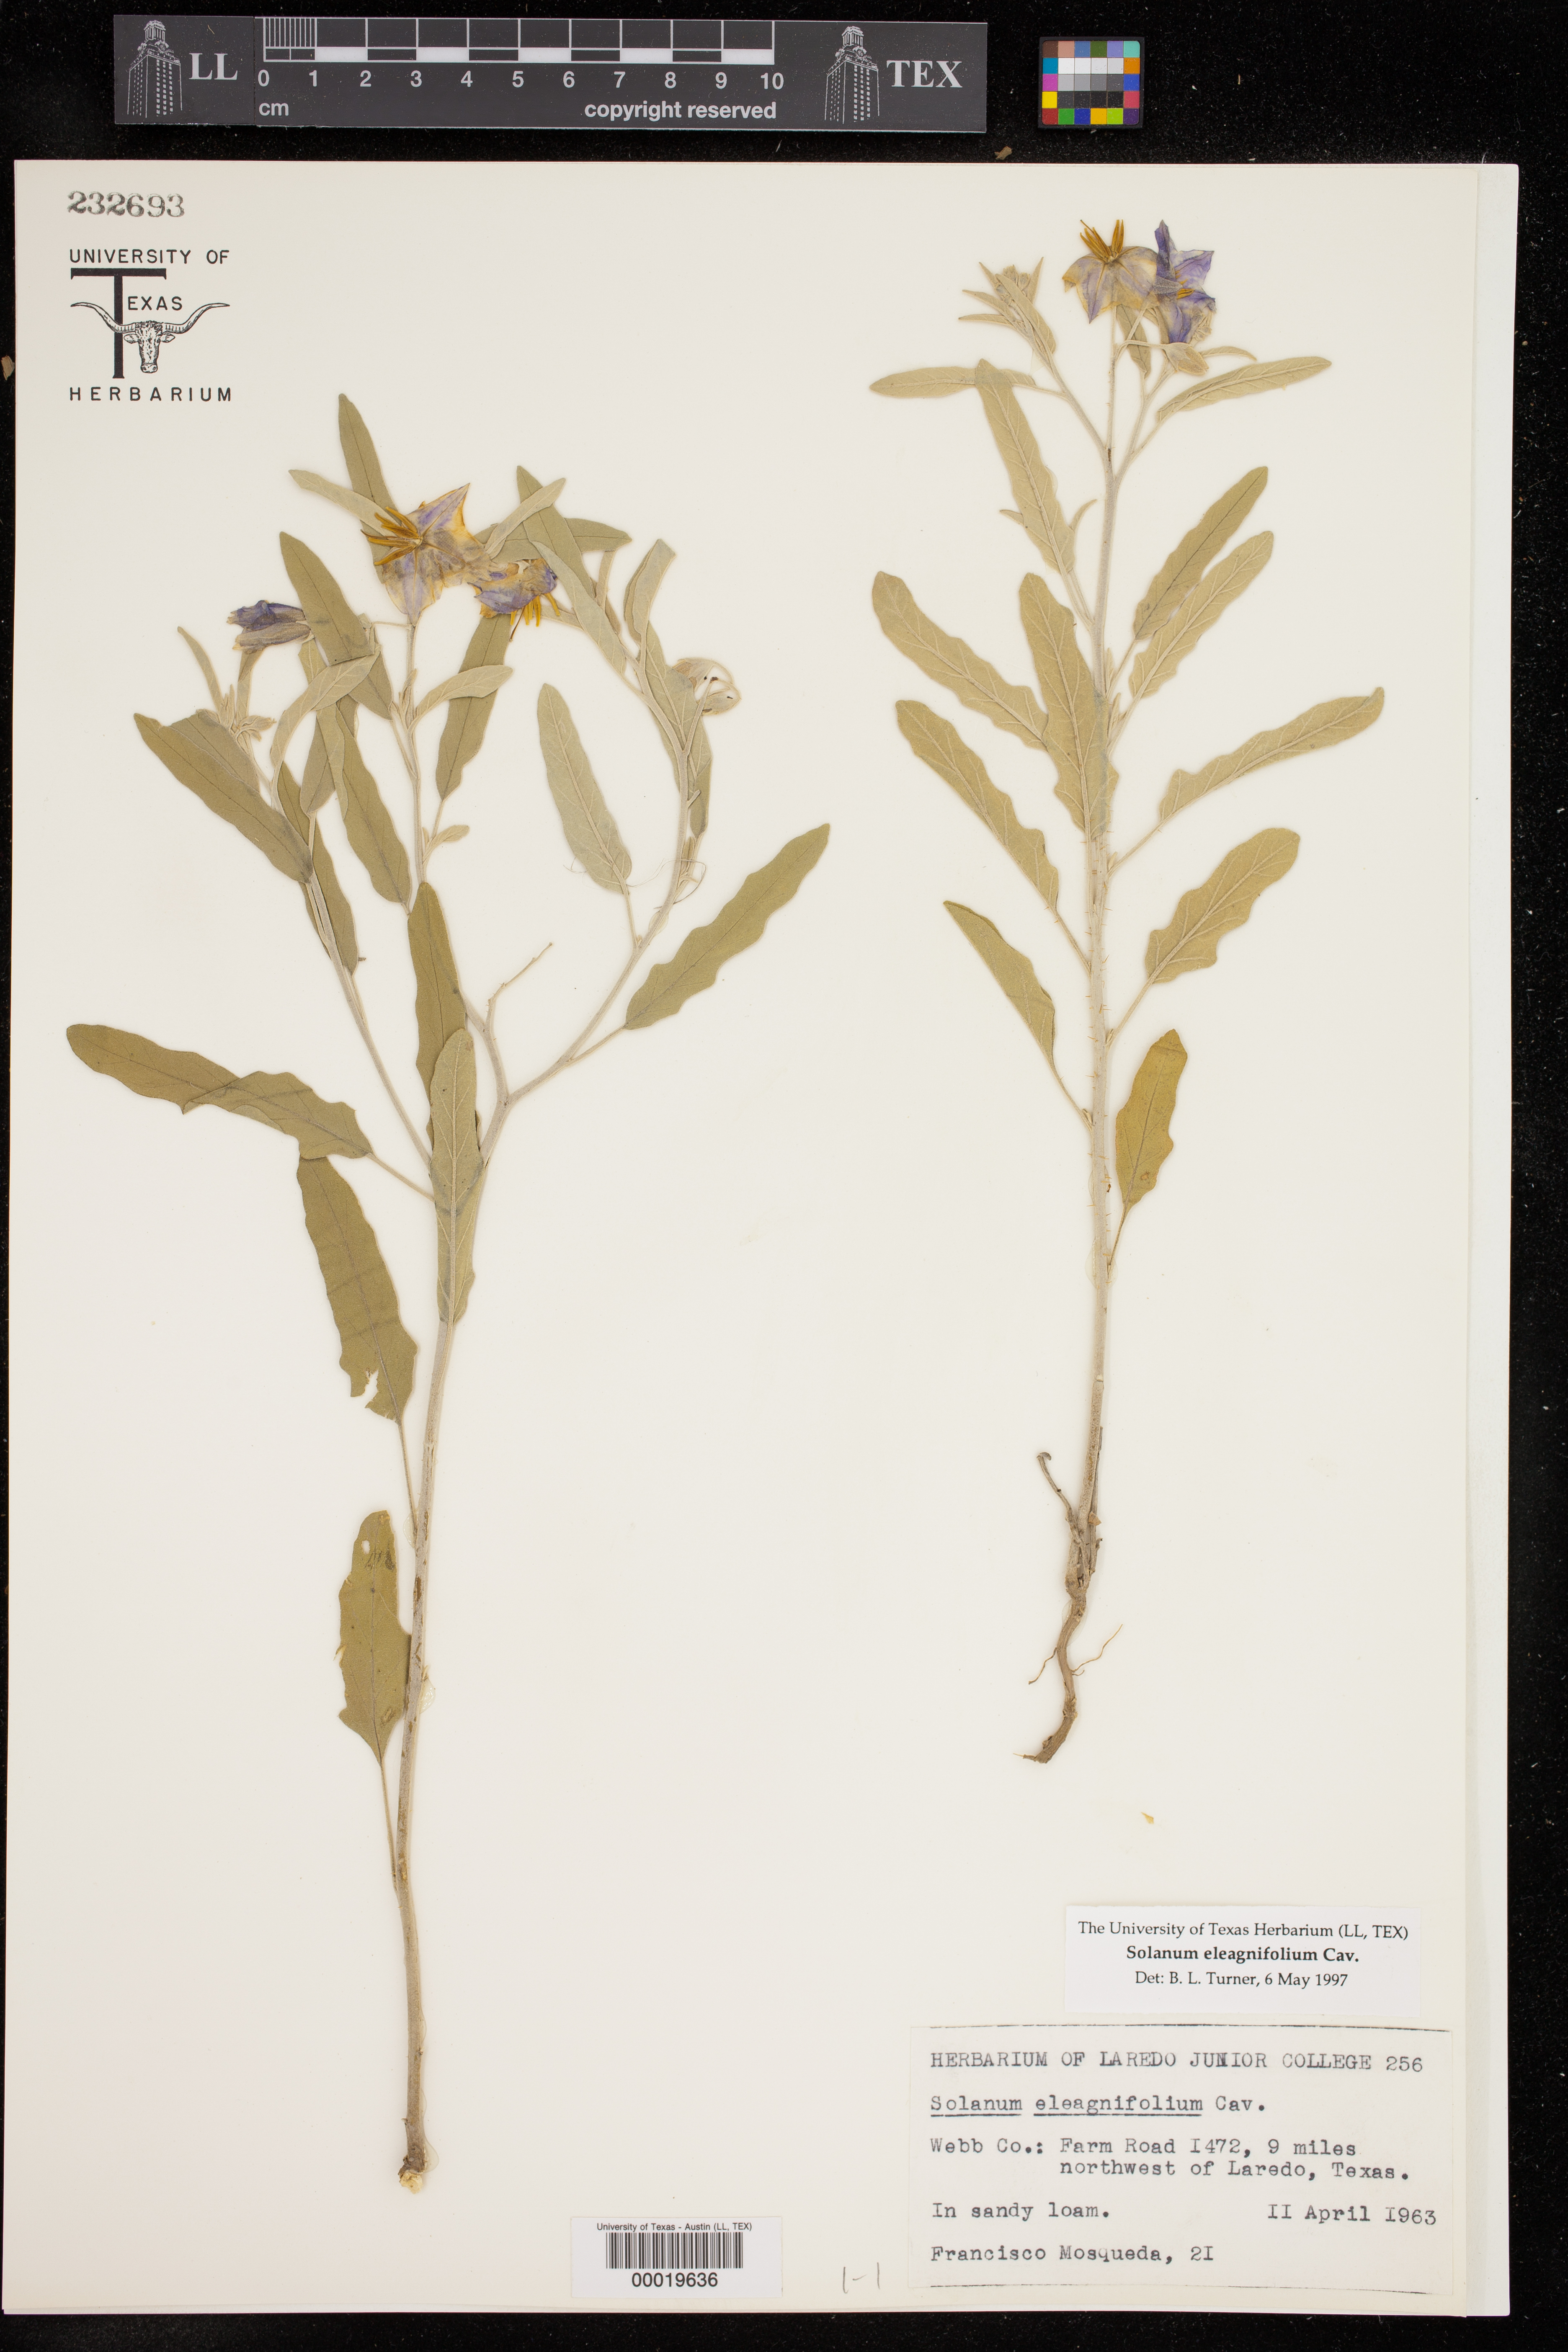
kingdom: Plantae
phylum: Tracheophyta
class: Magnoliopsida
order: Solanales
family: Solanaceae
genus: Solanum
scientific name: Solanum elaeagnifolium
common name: Silverleaf nightshade
